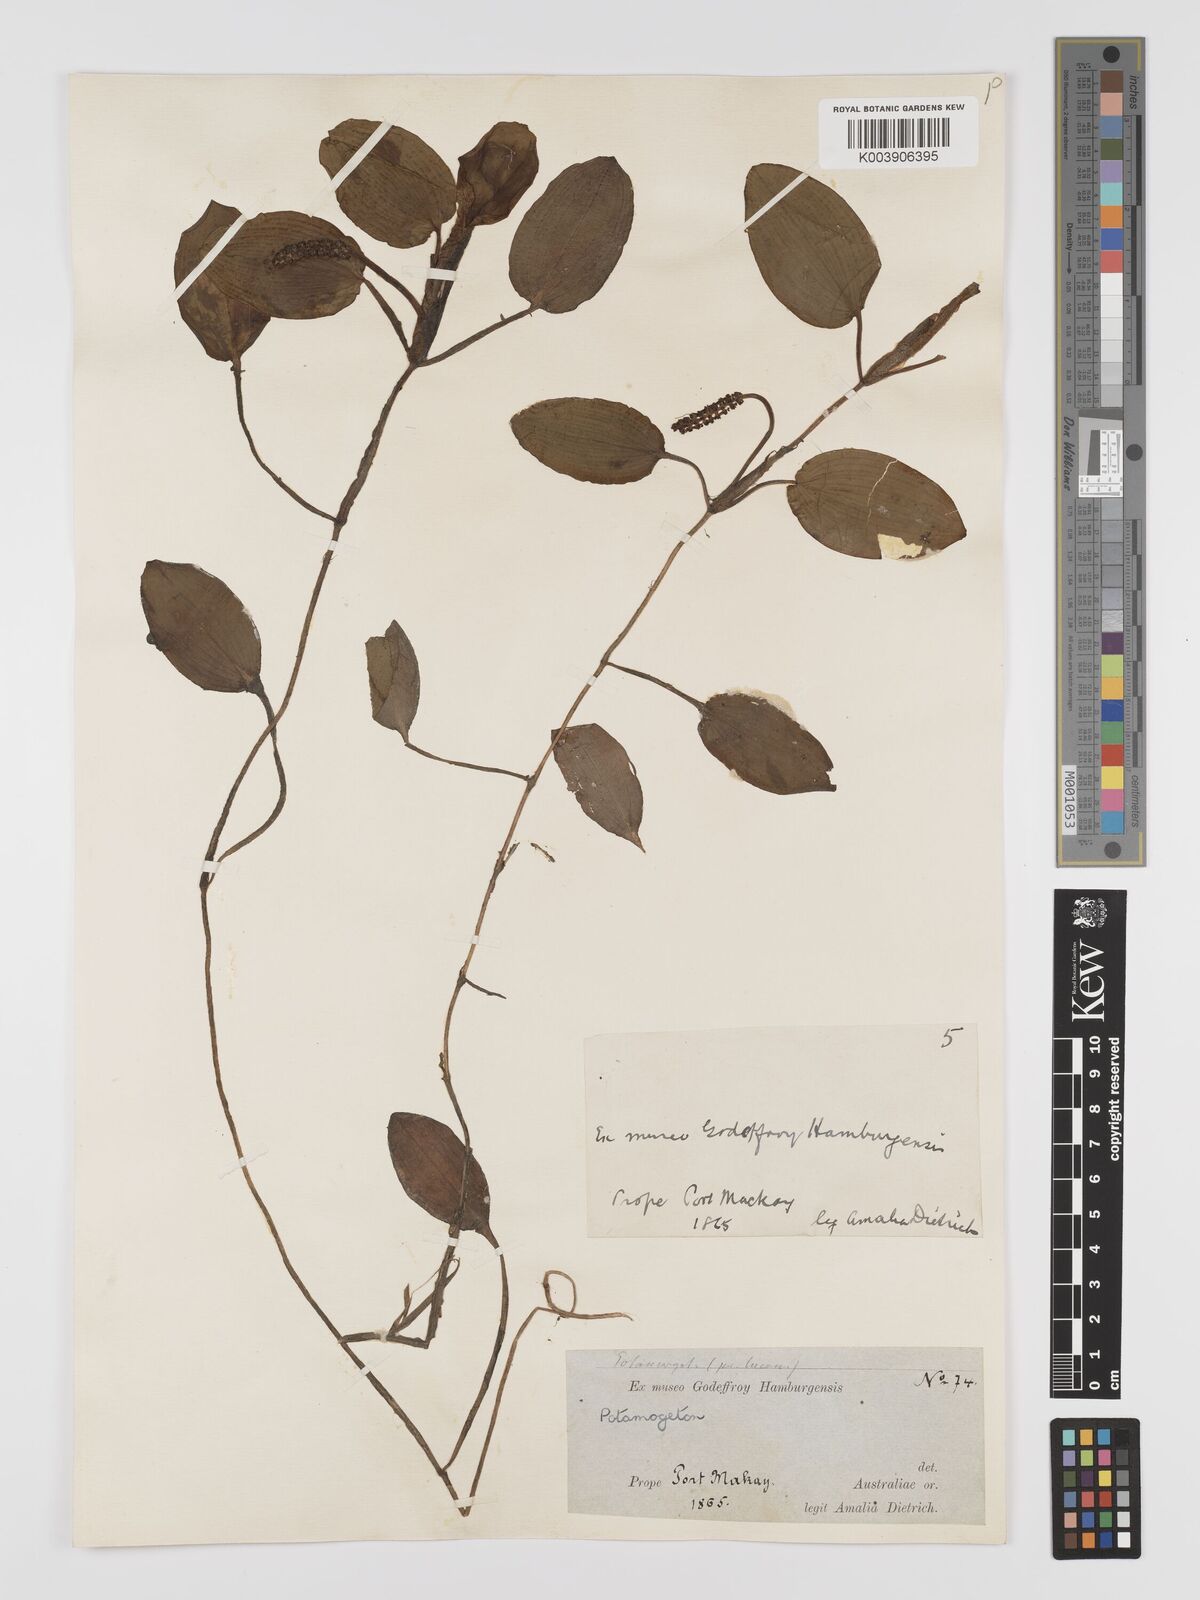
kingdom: Plantae
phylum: Tracheophyta
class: Liliopsida
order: Alismatales
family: Potamogetonaceae
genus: Potamogeton
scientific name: Potamogeton tricarinatus
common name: Pondweed
